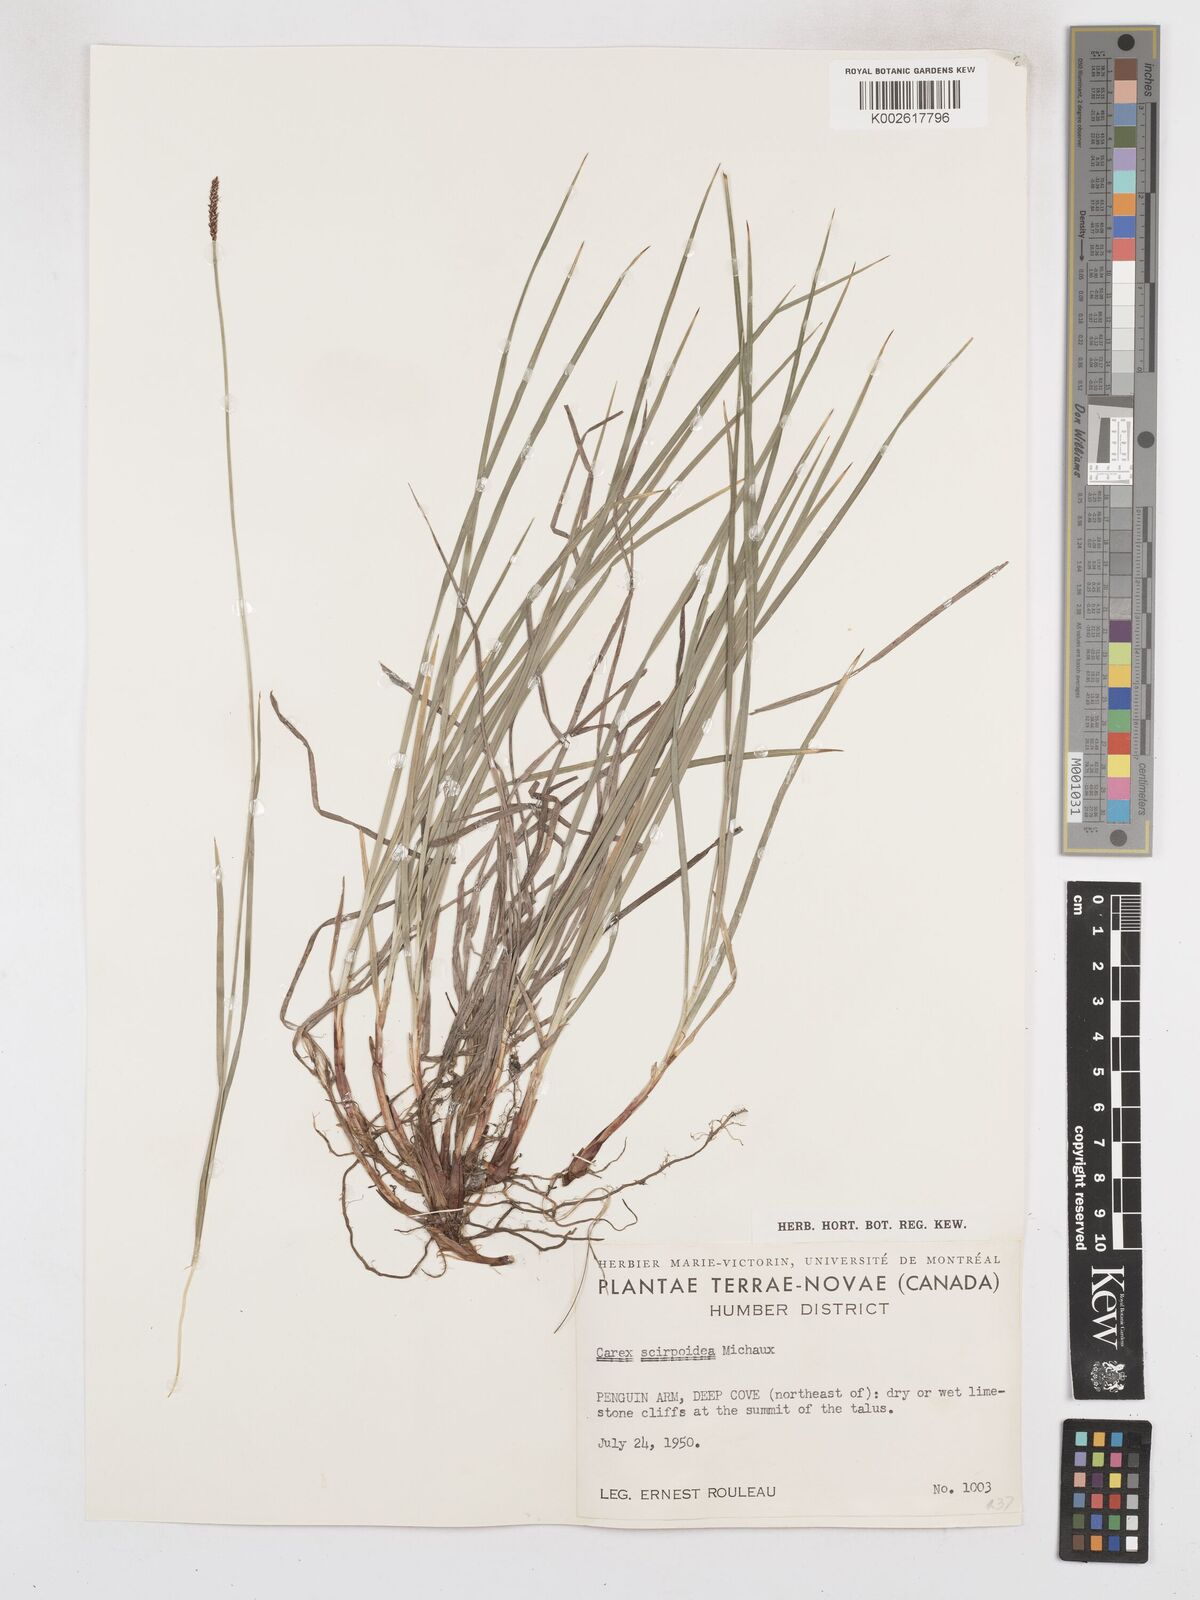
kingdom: Plantae
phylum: Tracheophyta
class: Liliopsida
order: Poales
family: Cyperaceae
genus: Carex
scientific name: Carex scirpoidea
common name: Canada single-spike sedge
